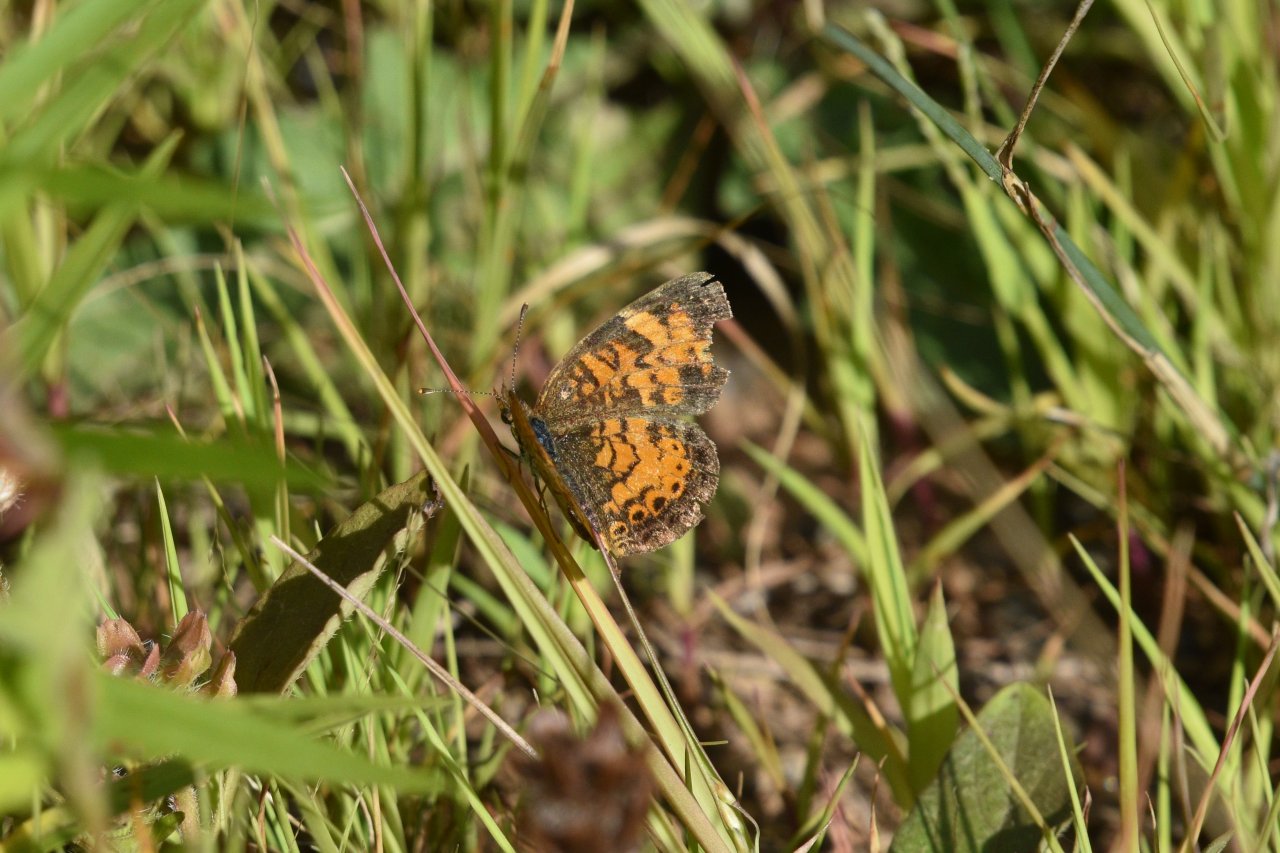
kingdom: Animalia
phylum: Arthropoda
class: Insecta
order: Lepidoptera
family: Nymphalidae
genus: Phyciodes
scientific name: Phyciodes tharos
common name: Northern Crescent
